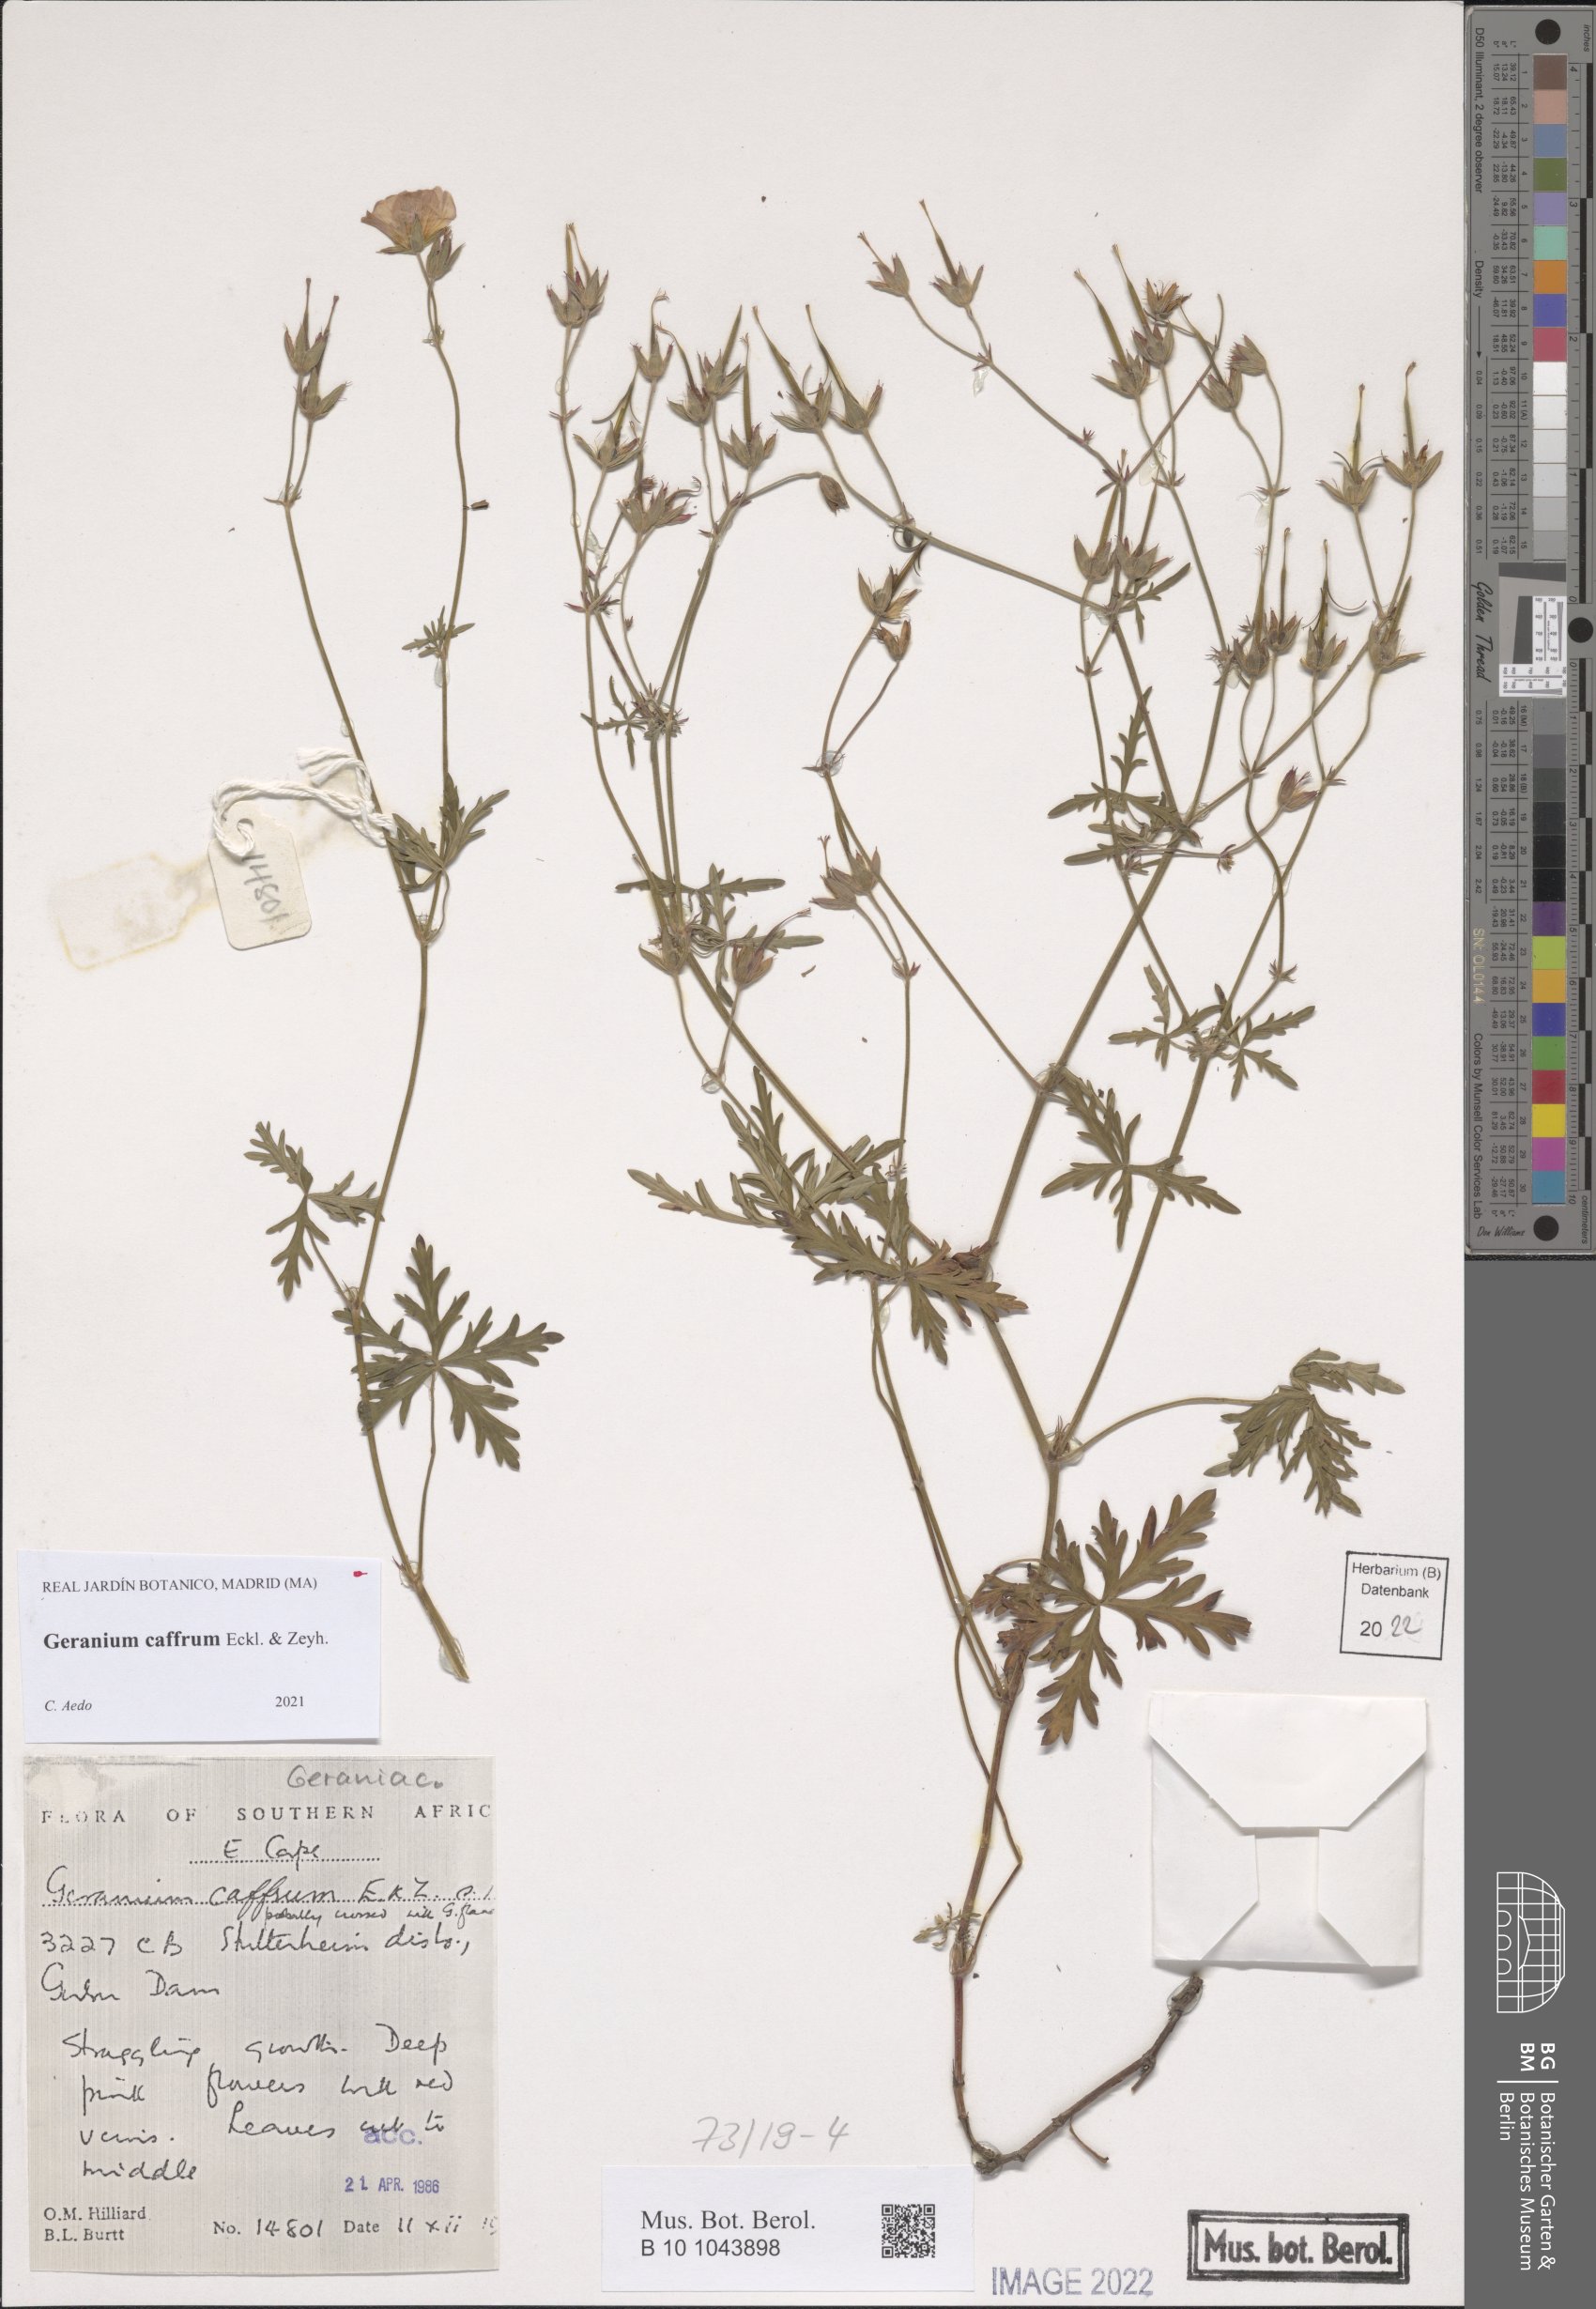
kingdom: Plantae
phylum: Tracheophyta
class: Magnoliopsida
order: Geraniales
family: Geraniaceae
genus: Geranium
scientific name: Geranium caffrum
